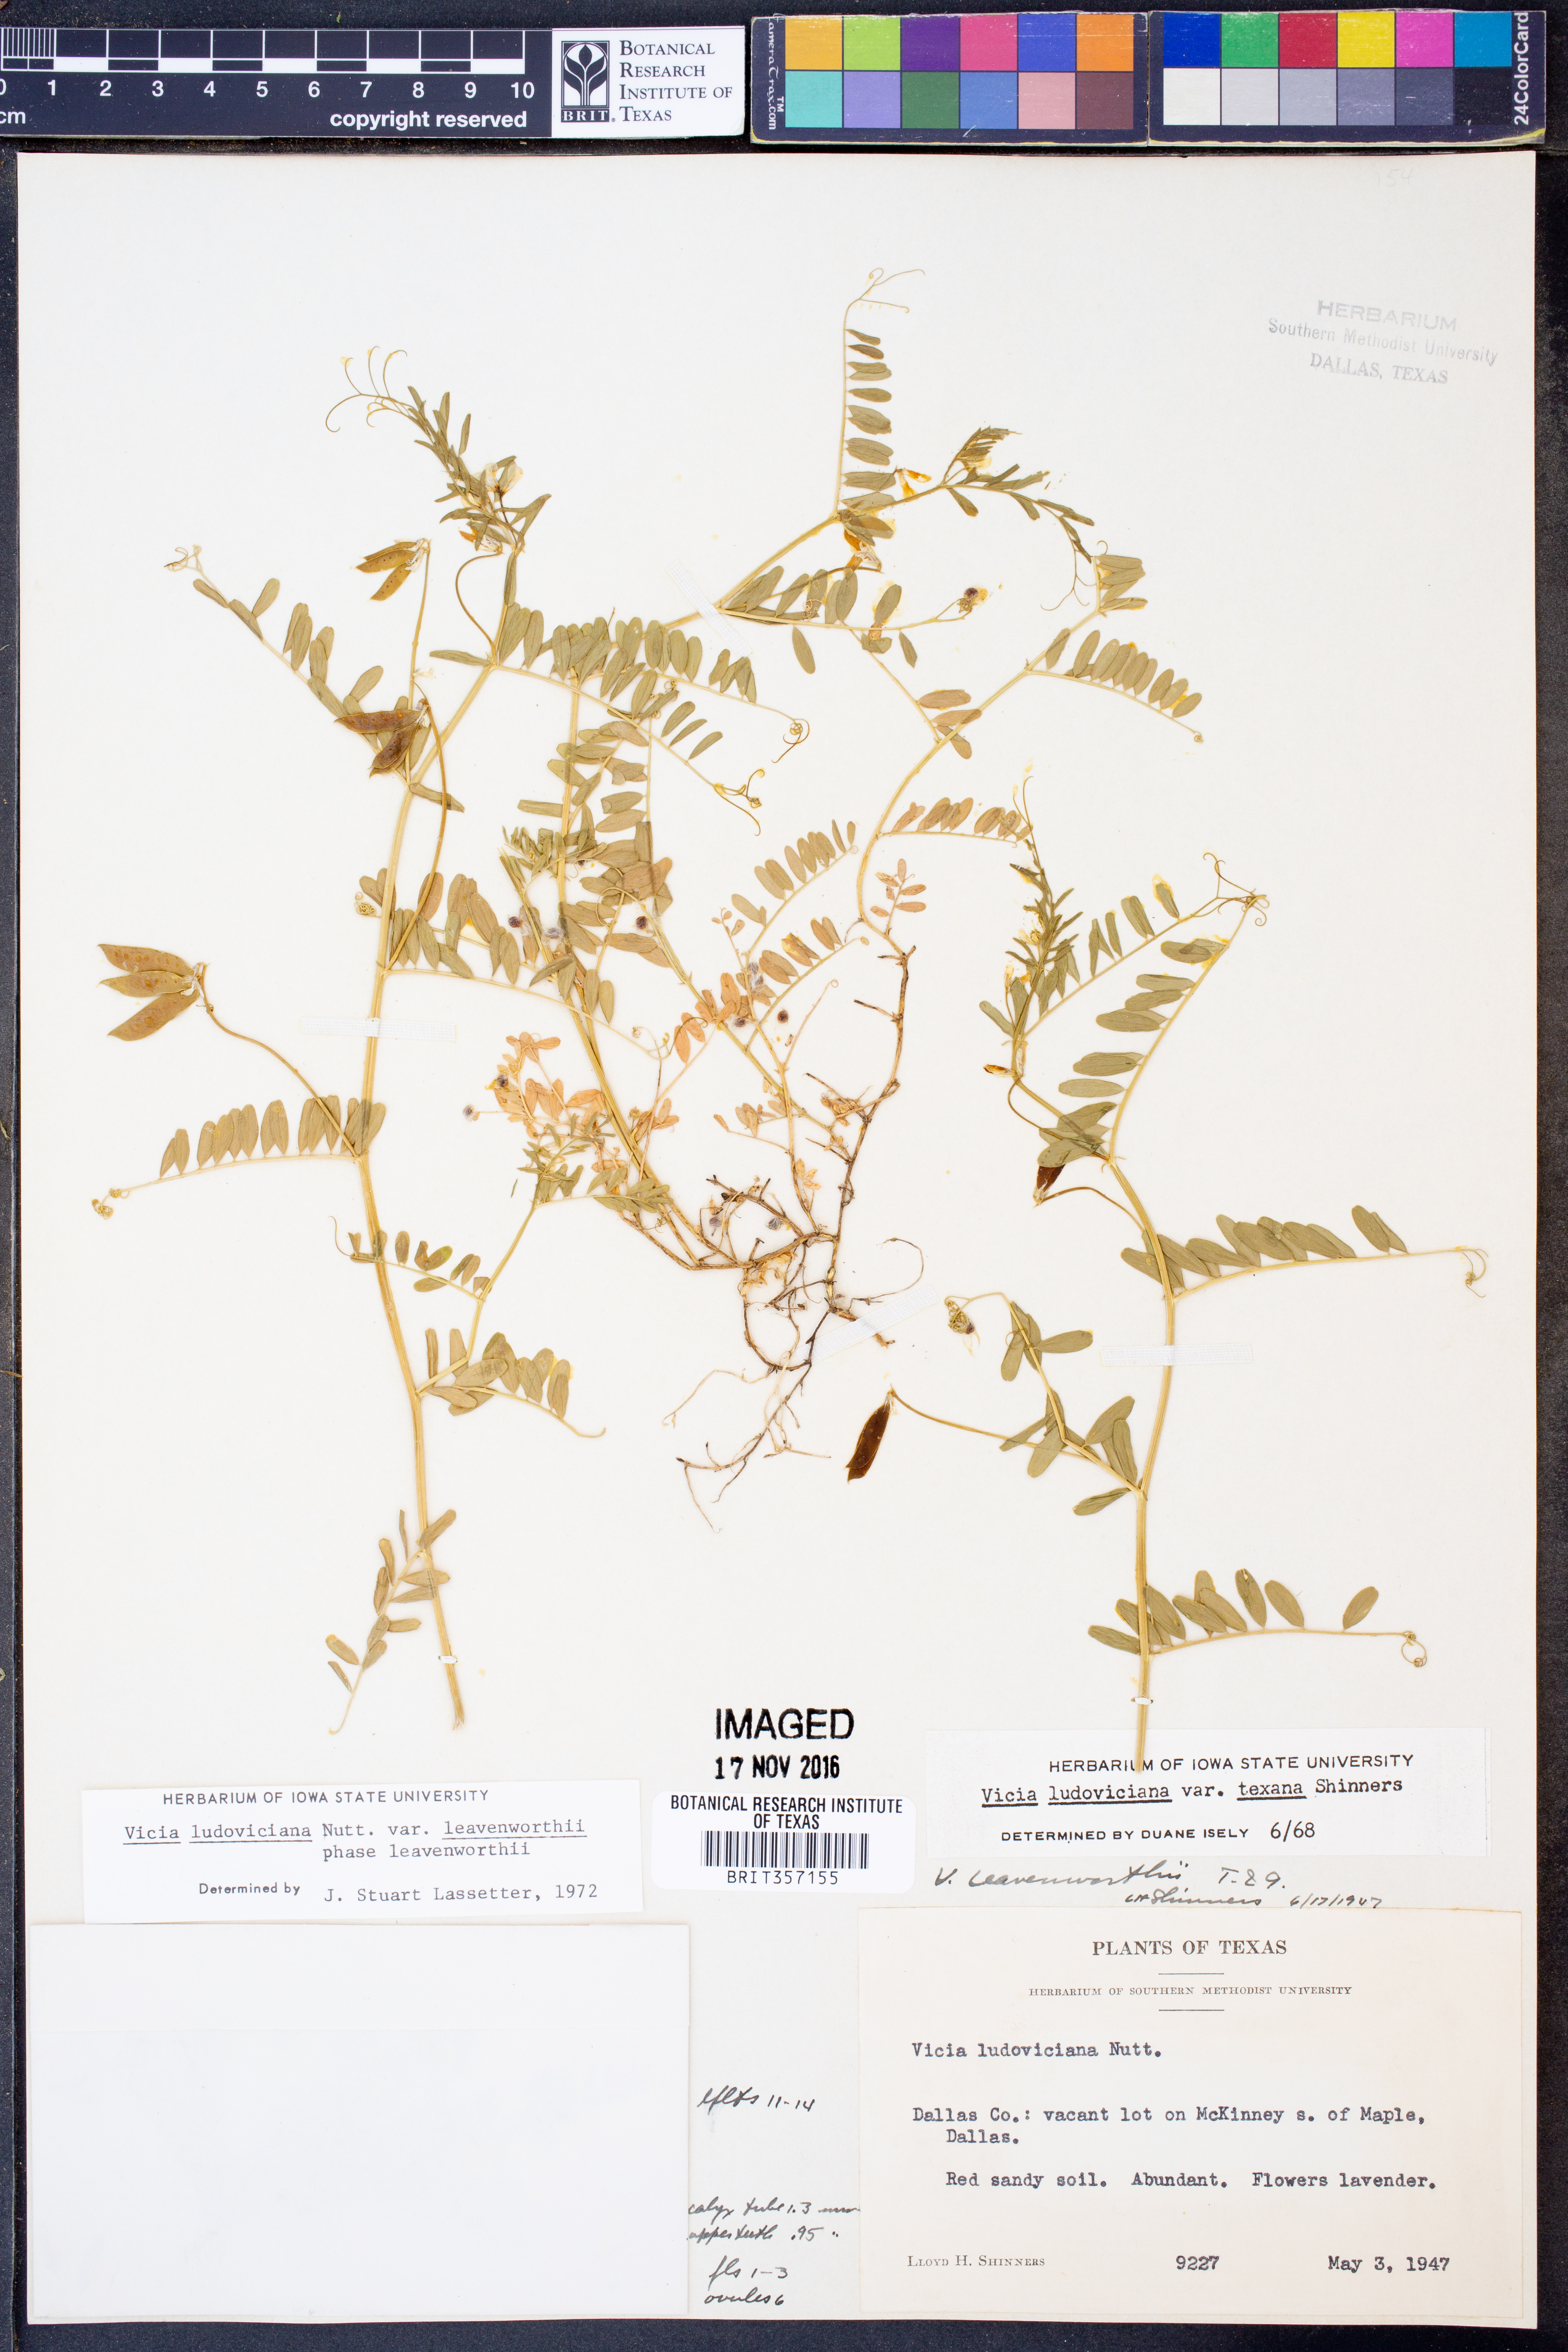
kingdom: Plantae
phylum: Tracheophyta
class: Magnoliopsida
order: Fabales
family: Fabaceae
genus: Vicia
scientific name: Vicia ludoviciana
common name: Louisiana vetch
